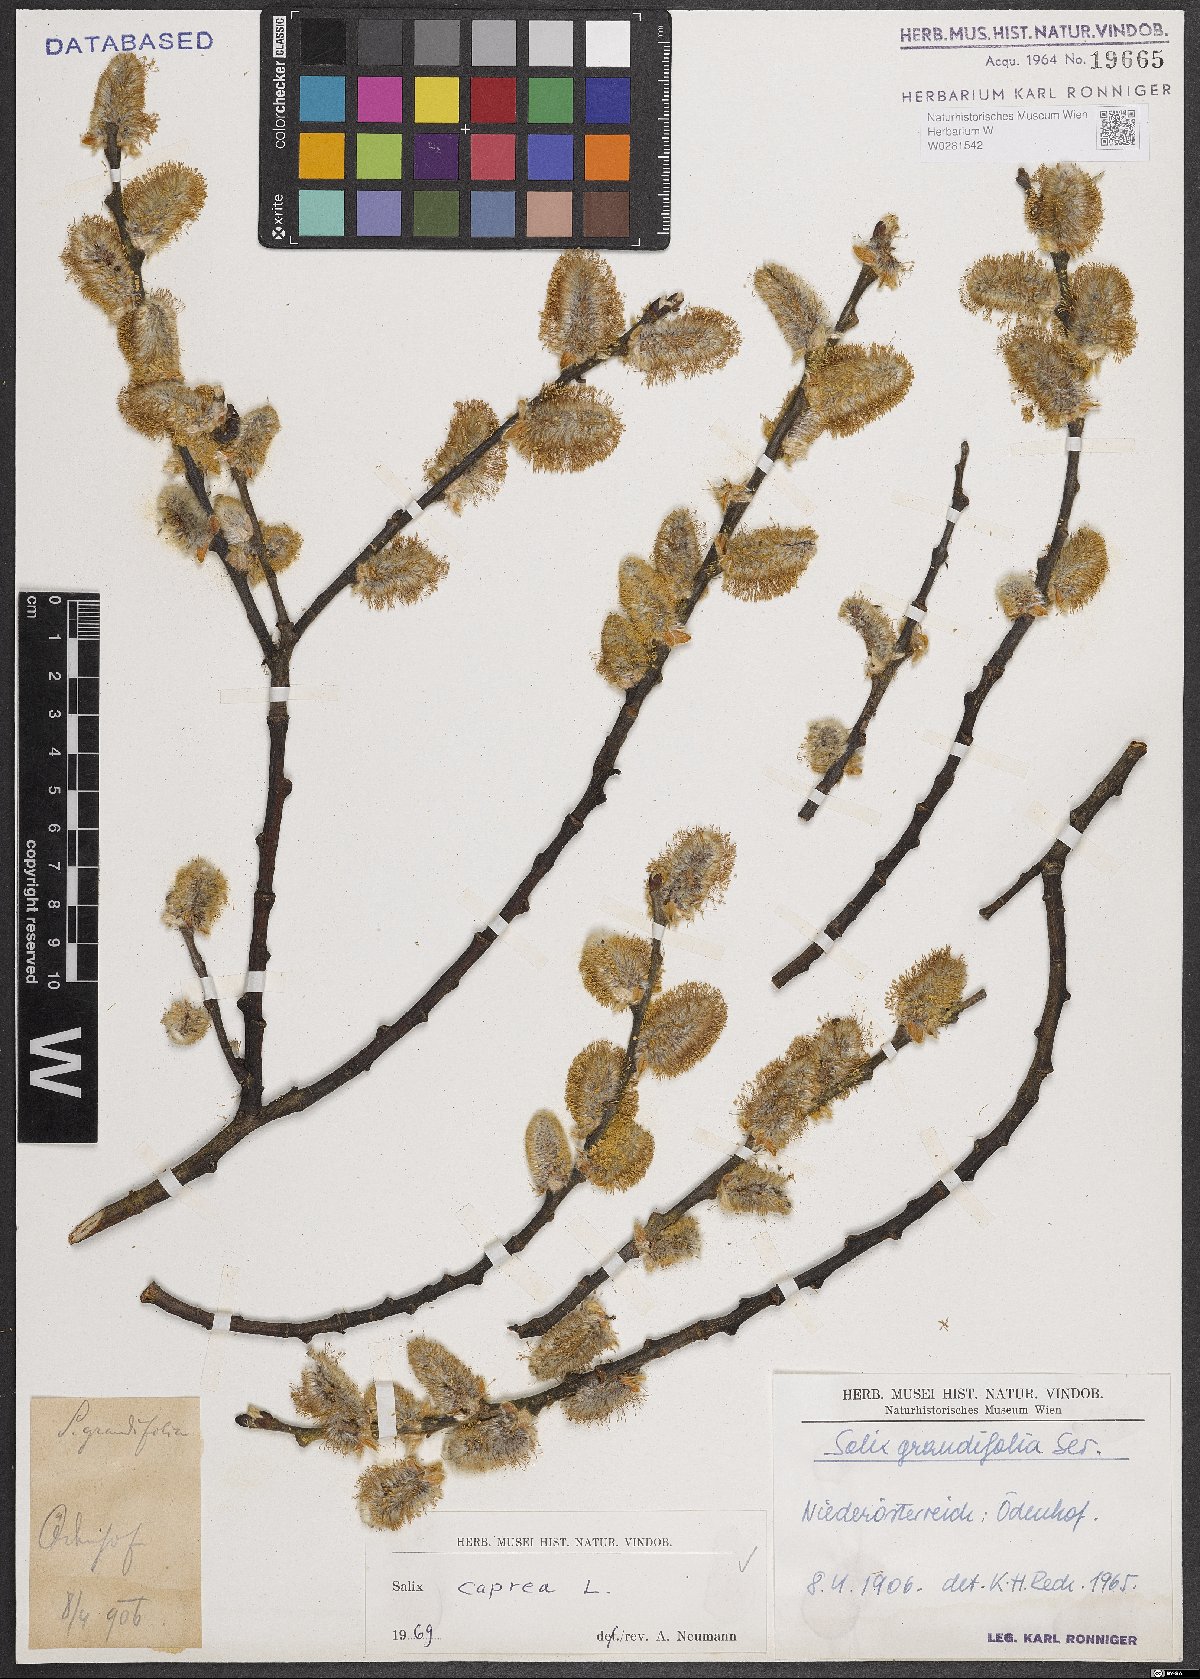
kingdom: Plantae
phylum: Tracheophyta
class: Magnoliopsida
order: Malpighiales
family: Salicaceae
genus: Salix
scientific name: Salix caprea
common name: Goat willow
